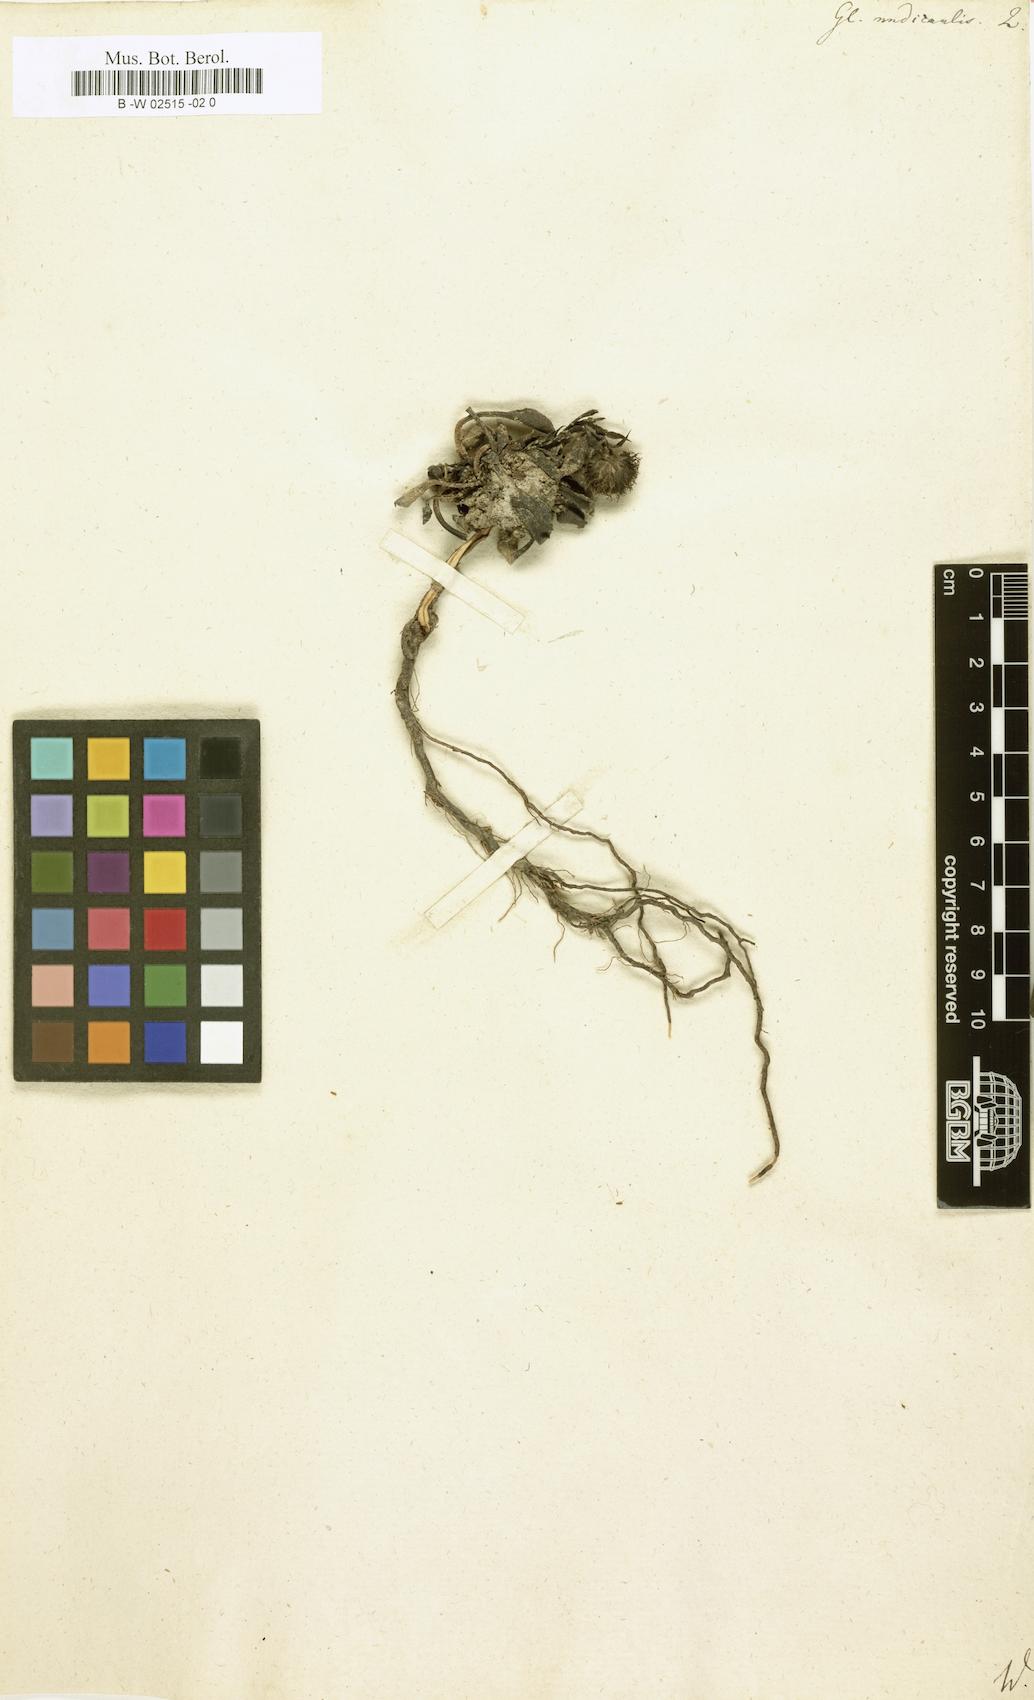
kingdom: Plantae
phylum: Tracheophyta
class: Magnoliopsida
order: Lamiales
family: Plantaginaceae
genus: Globularia
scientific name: Globularia nudicaulis
